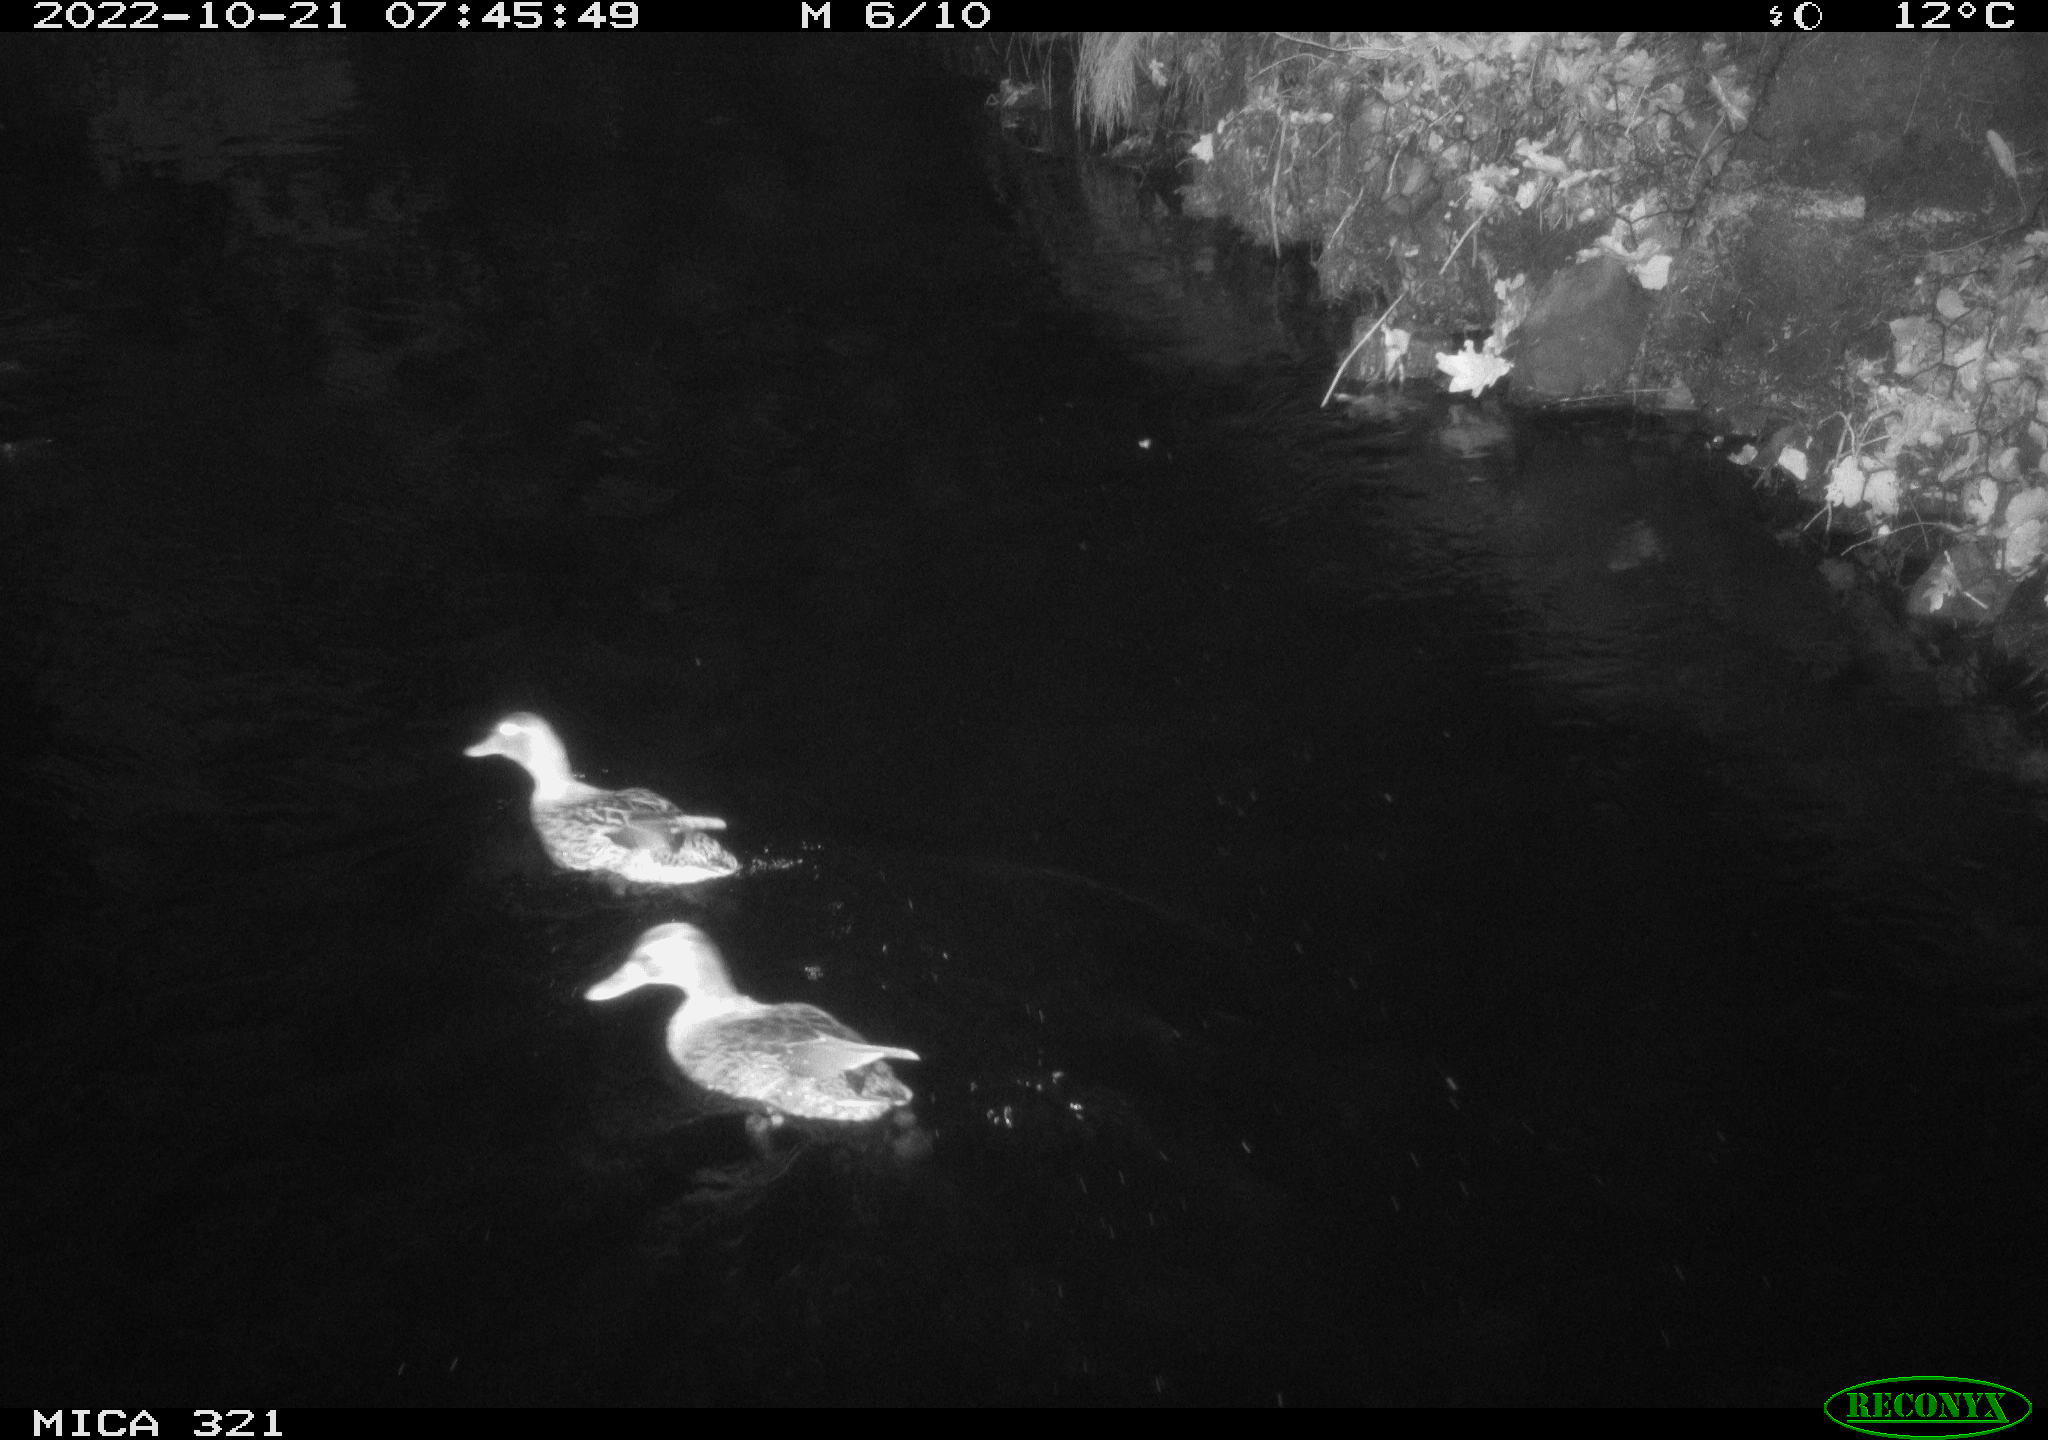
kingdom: Animalia
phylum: Chordata
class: Aves
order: Anseriformes
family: Anatidae
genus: Anas
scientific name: Anas
